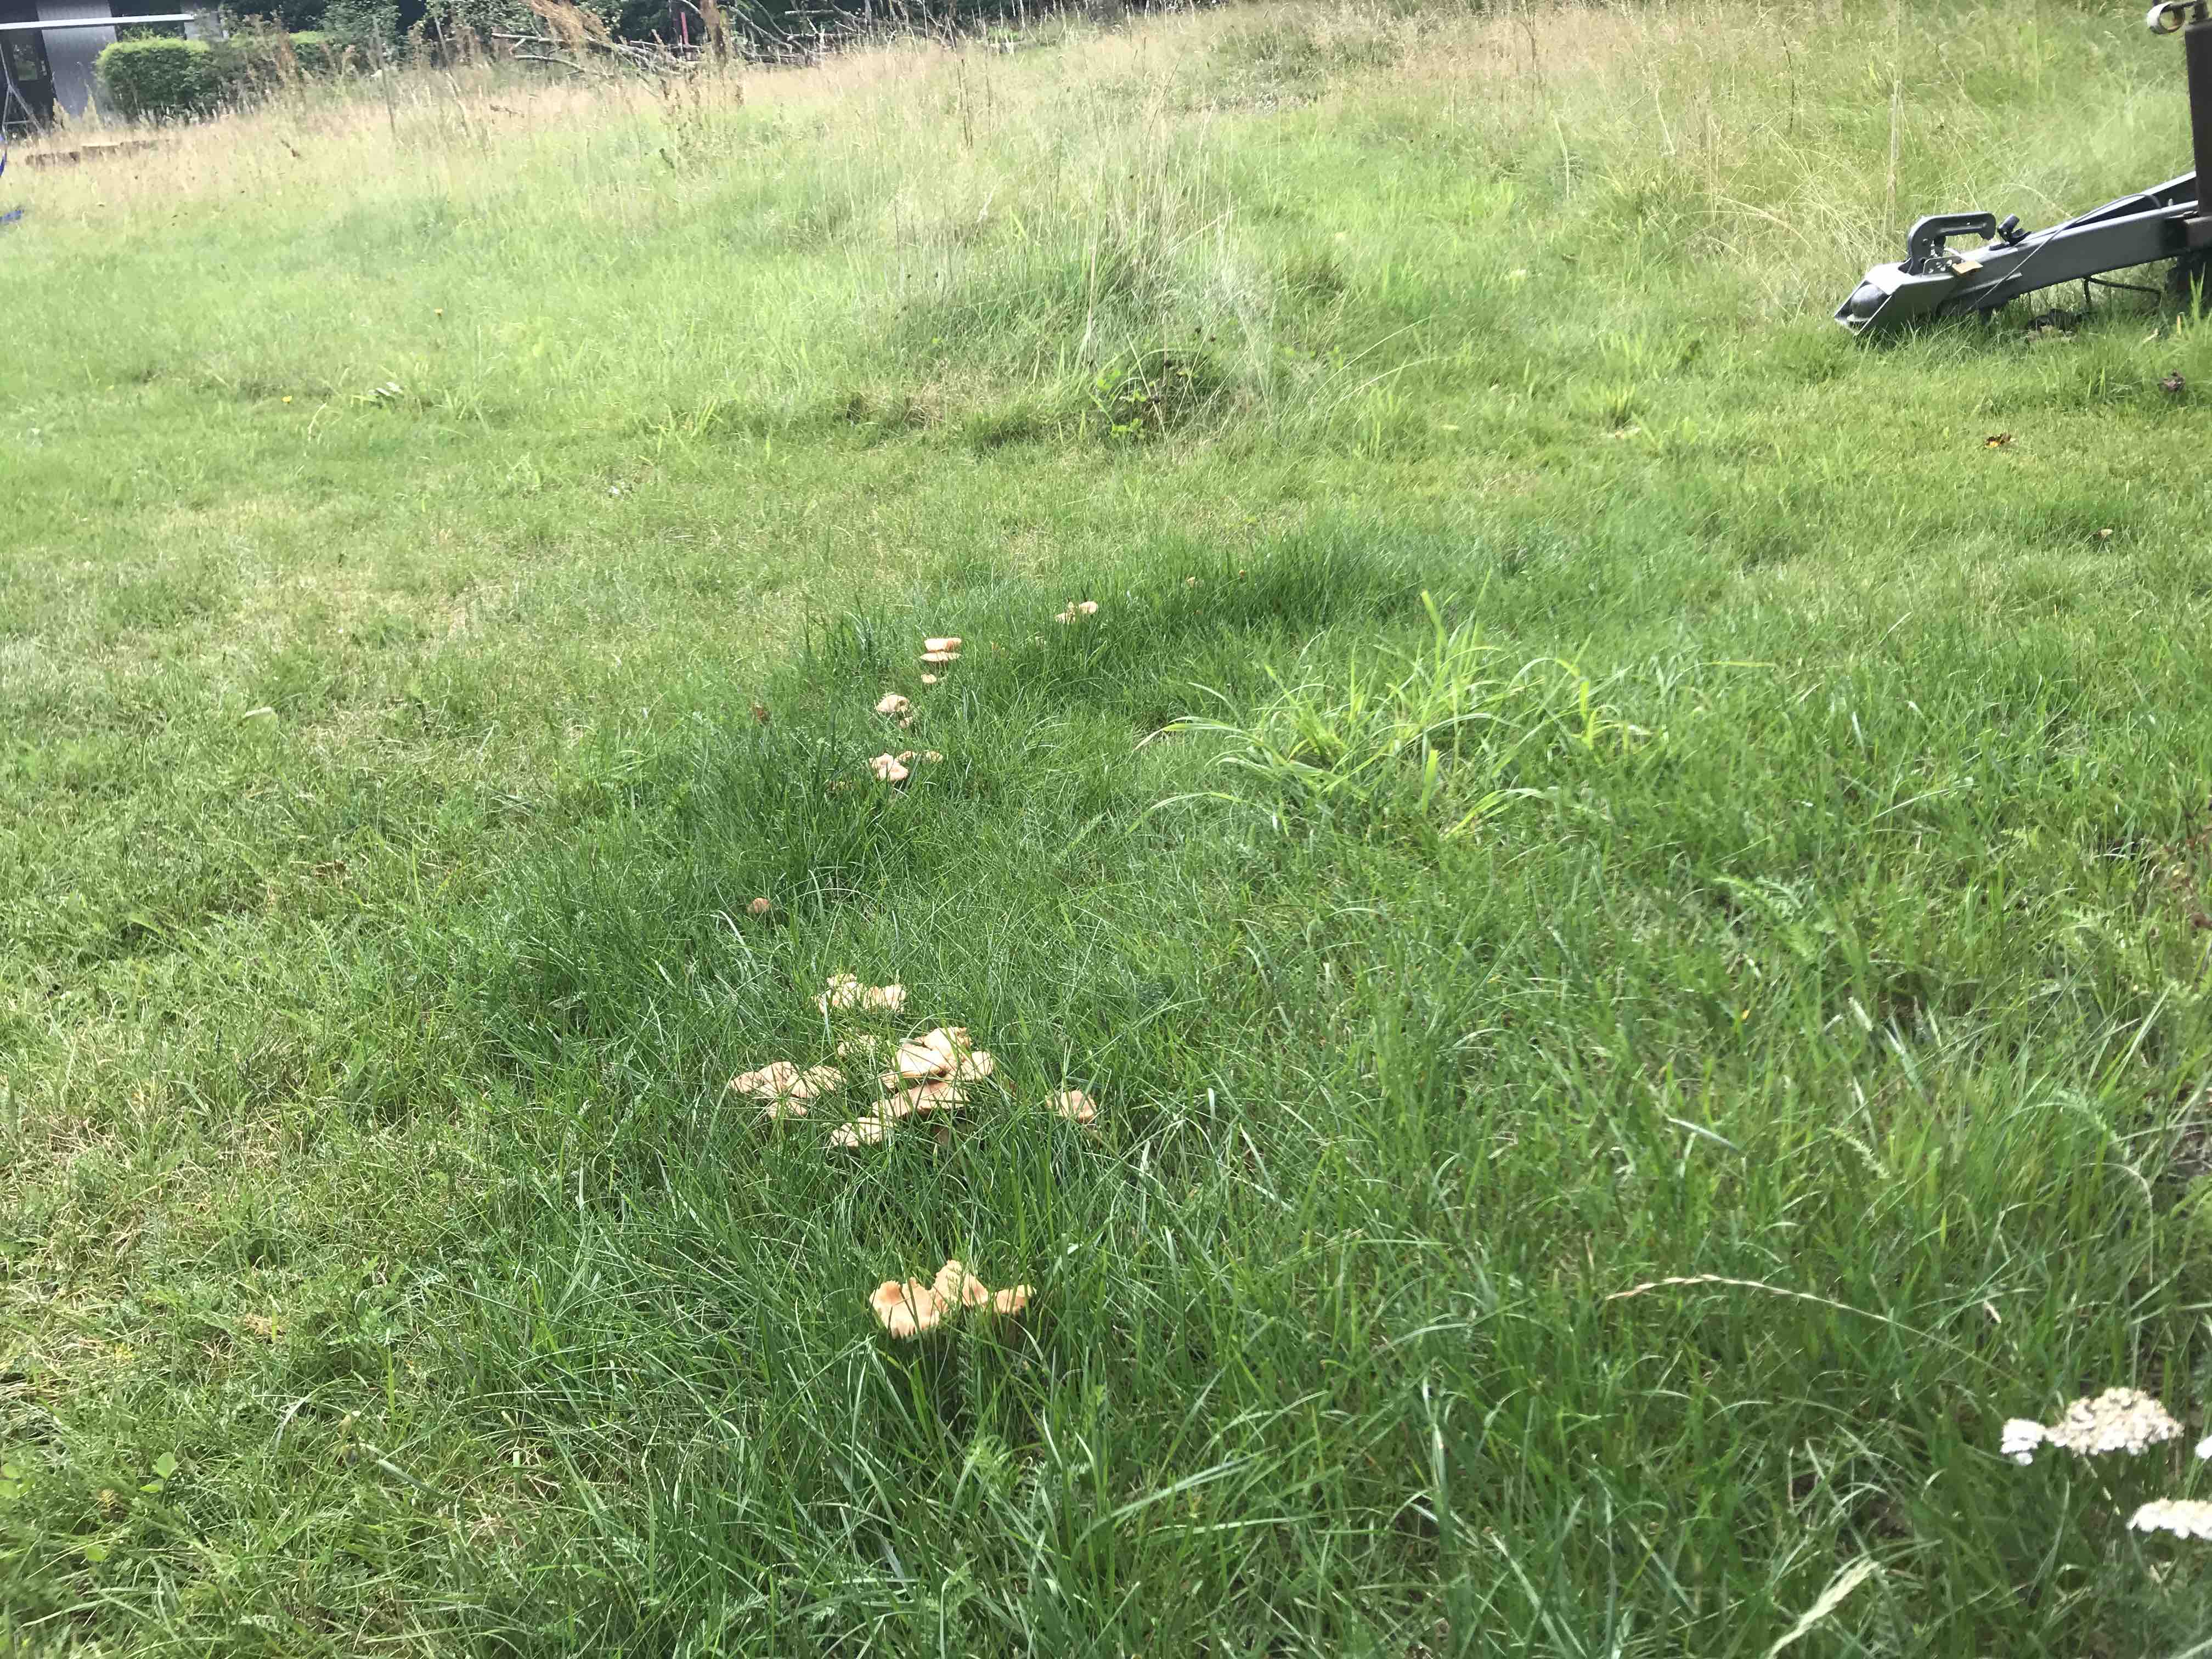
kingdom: Fungi
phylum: Basidiomycota
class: Agaricomycetes
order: Agaricales
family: Marasmiaceae
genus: Marasmius
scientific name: Marasmius oreades
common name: elledans-bruskhat
